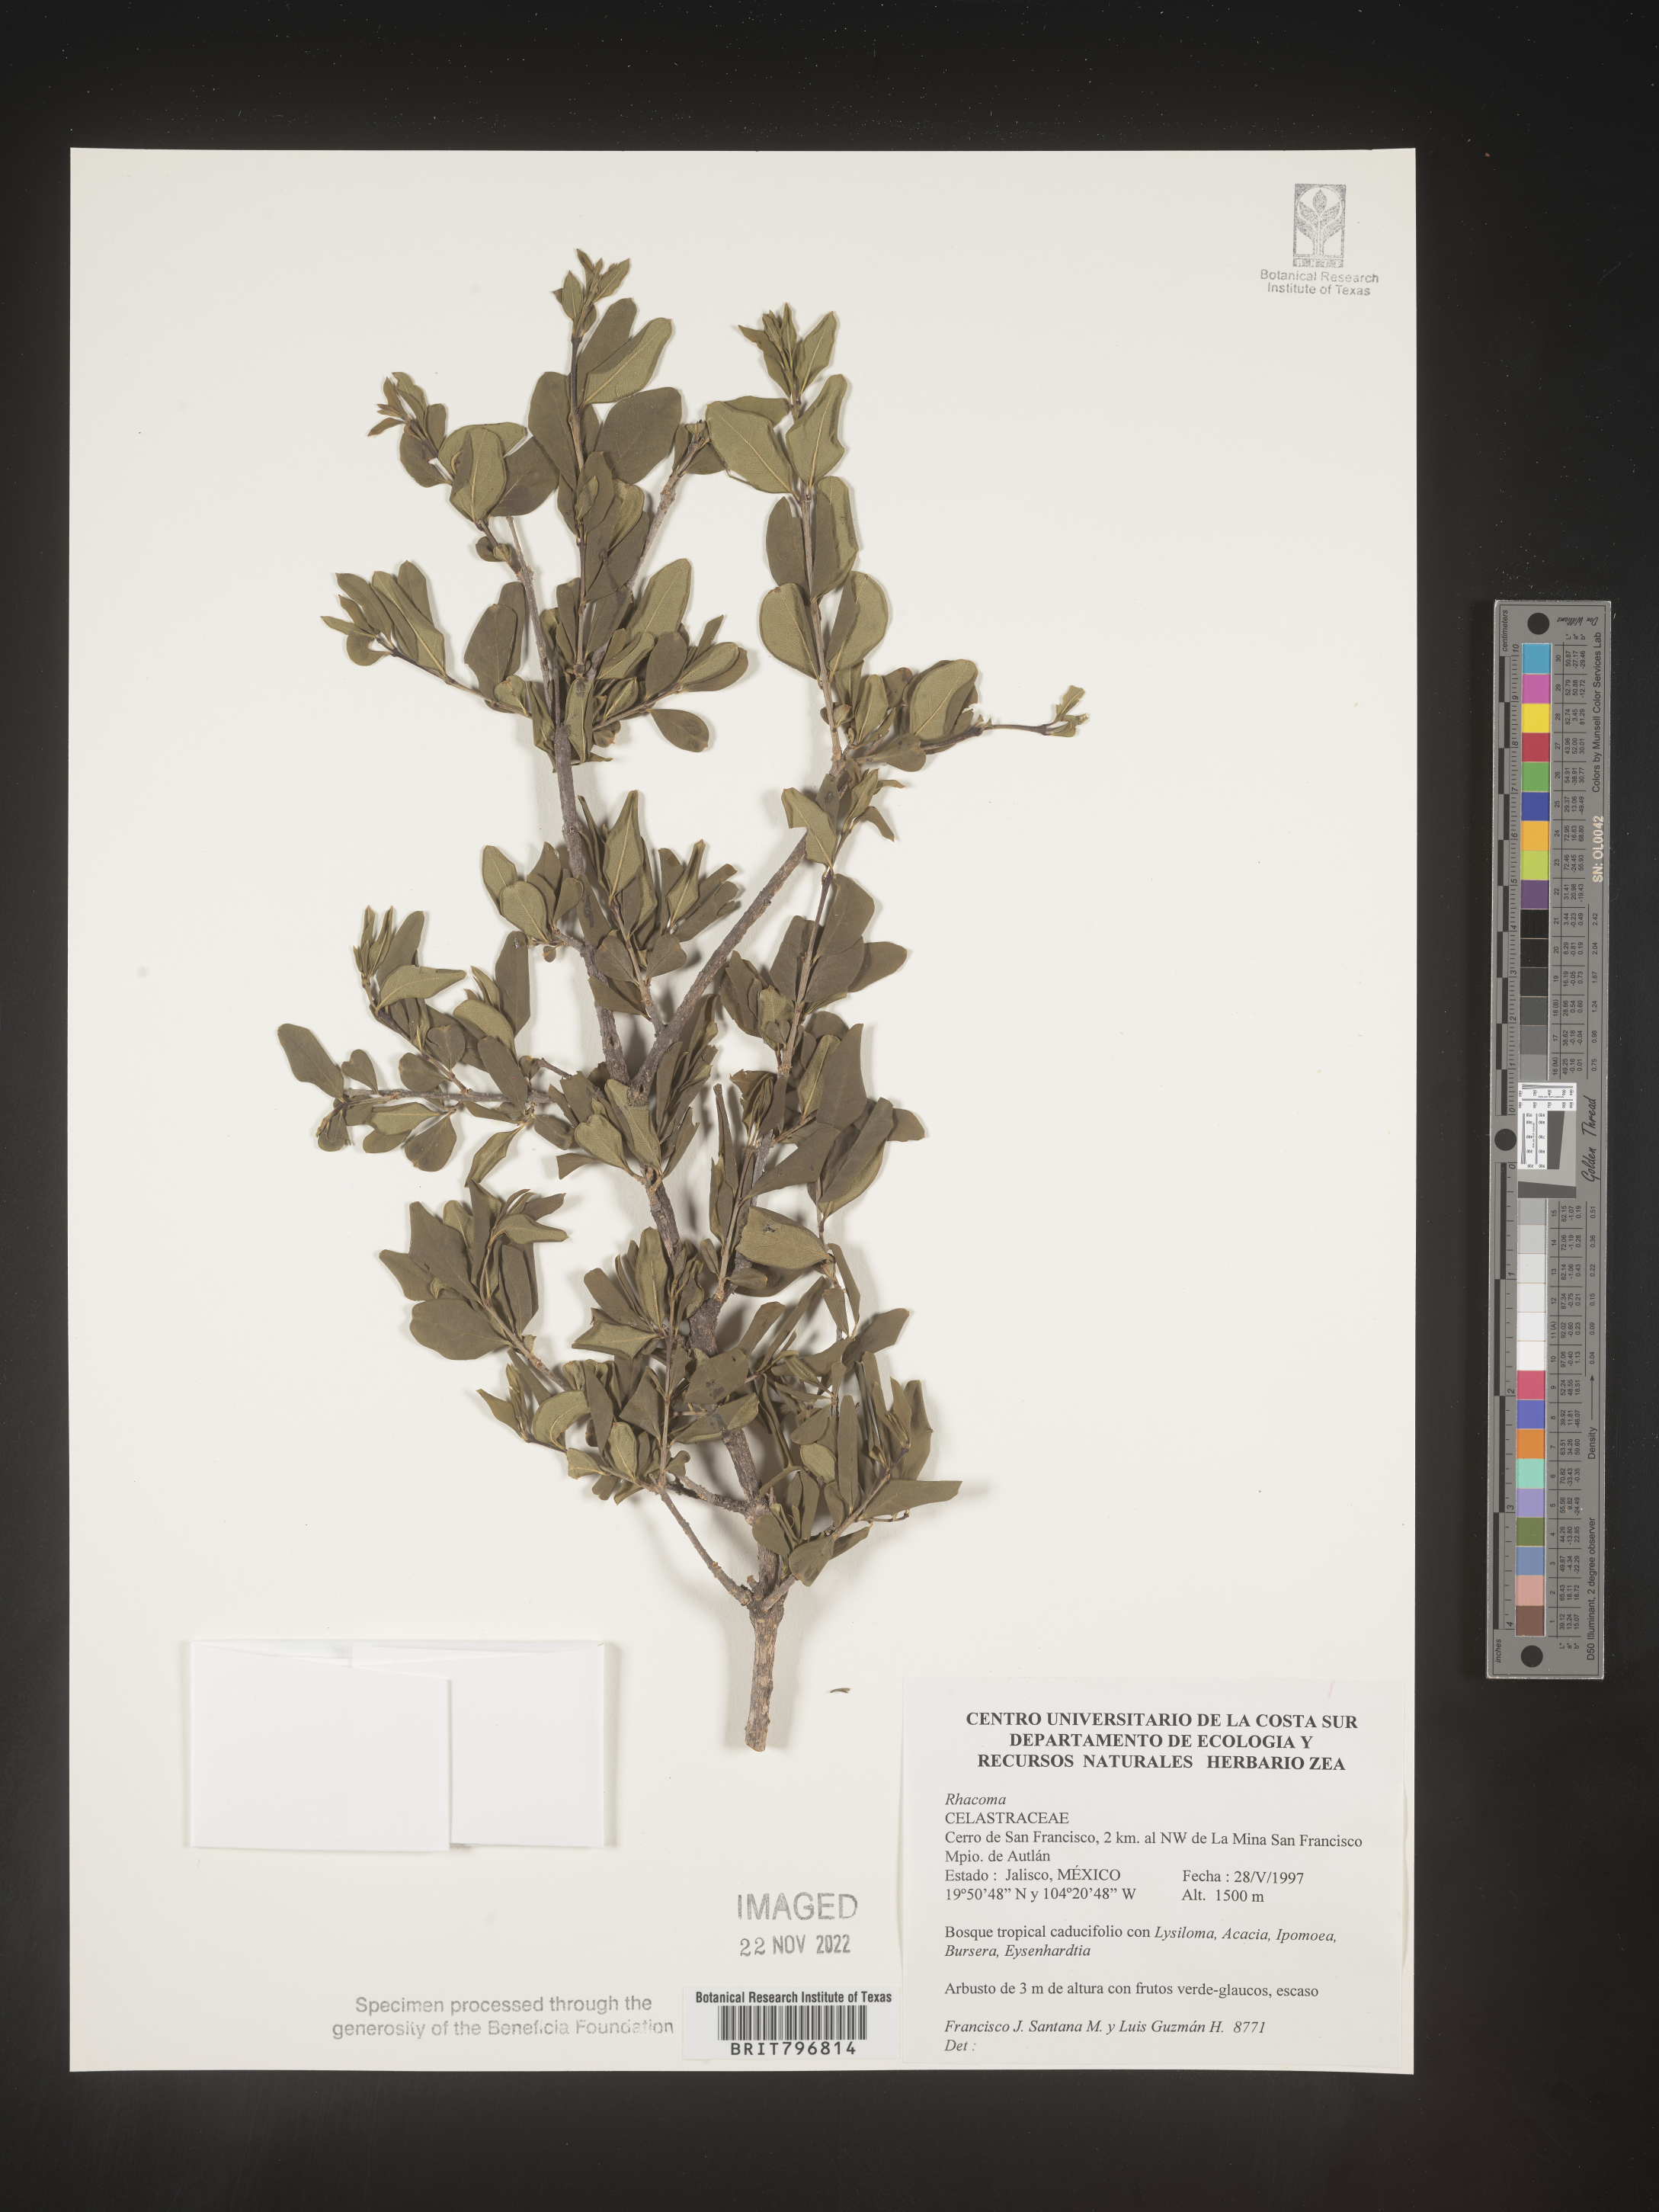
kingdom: Plantae
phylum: Tracheophyta
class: Magnoliopsida
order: Celastrales
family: Celastraceae
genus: Crossopetalum
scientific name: Crossopetalum
